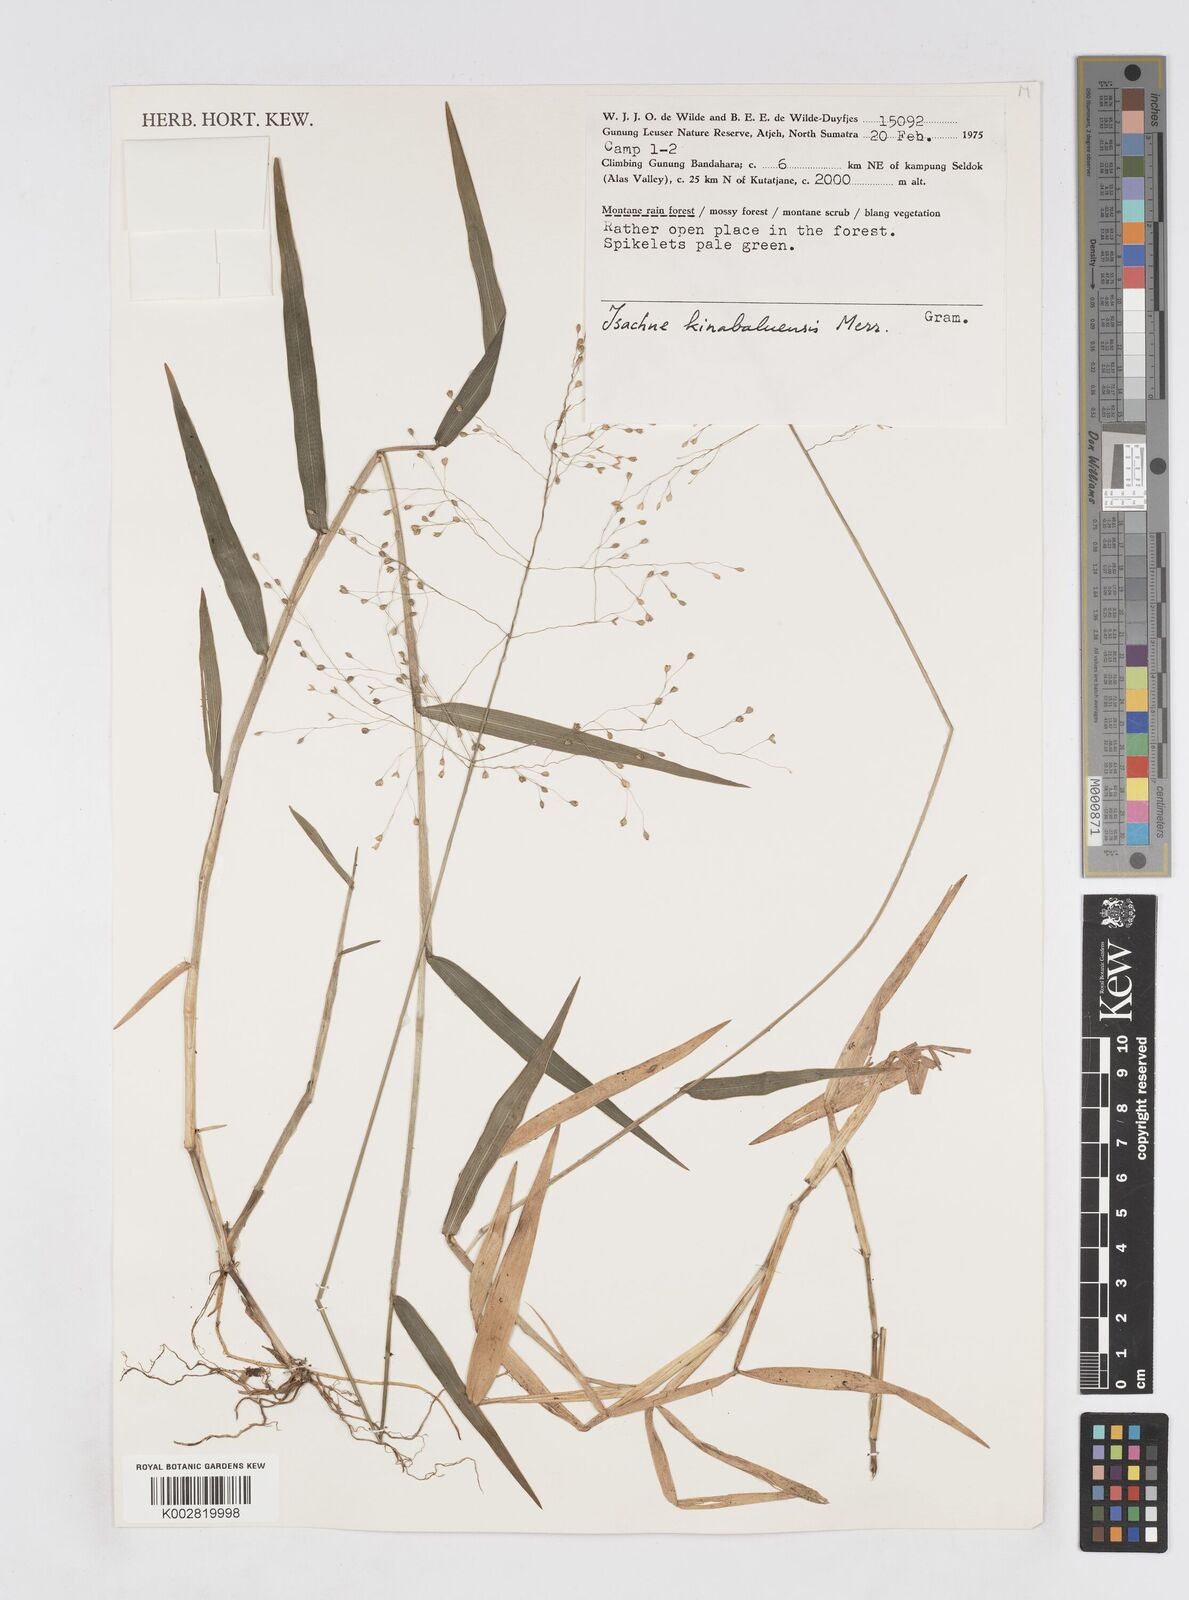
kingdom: Plantae
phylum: Tracheophyta
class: Liliopsida
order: Poales
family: Poaceae
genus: Isachne
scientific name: Isachne kinabaluensis
